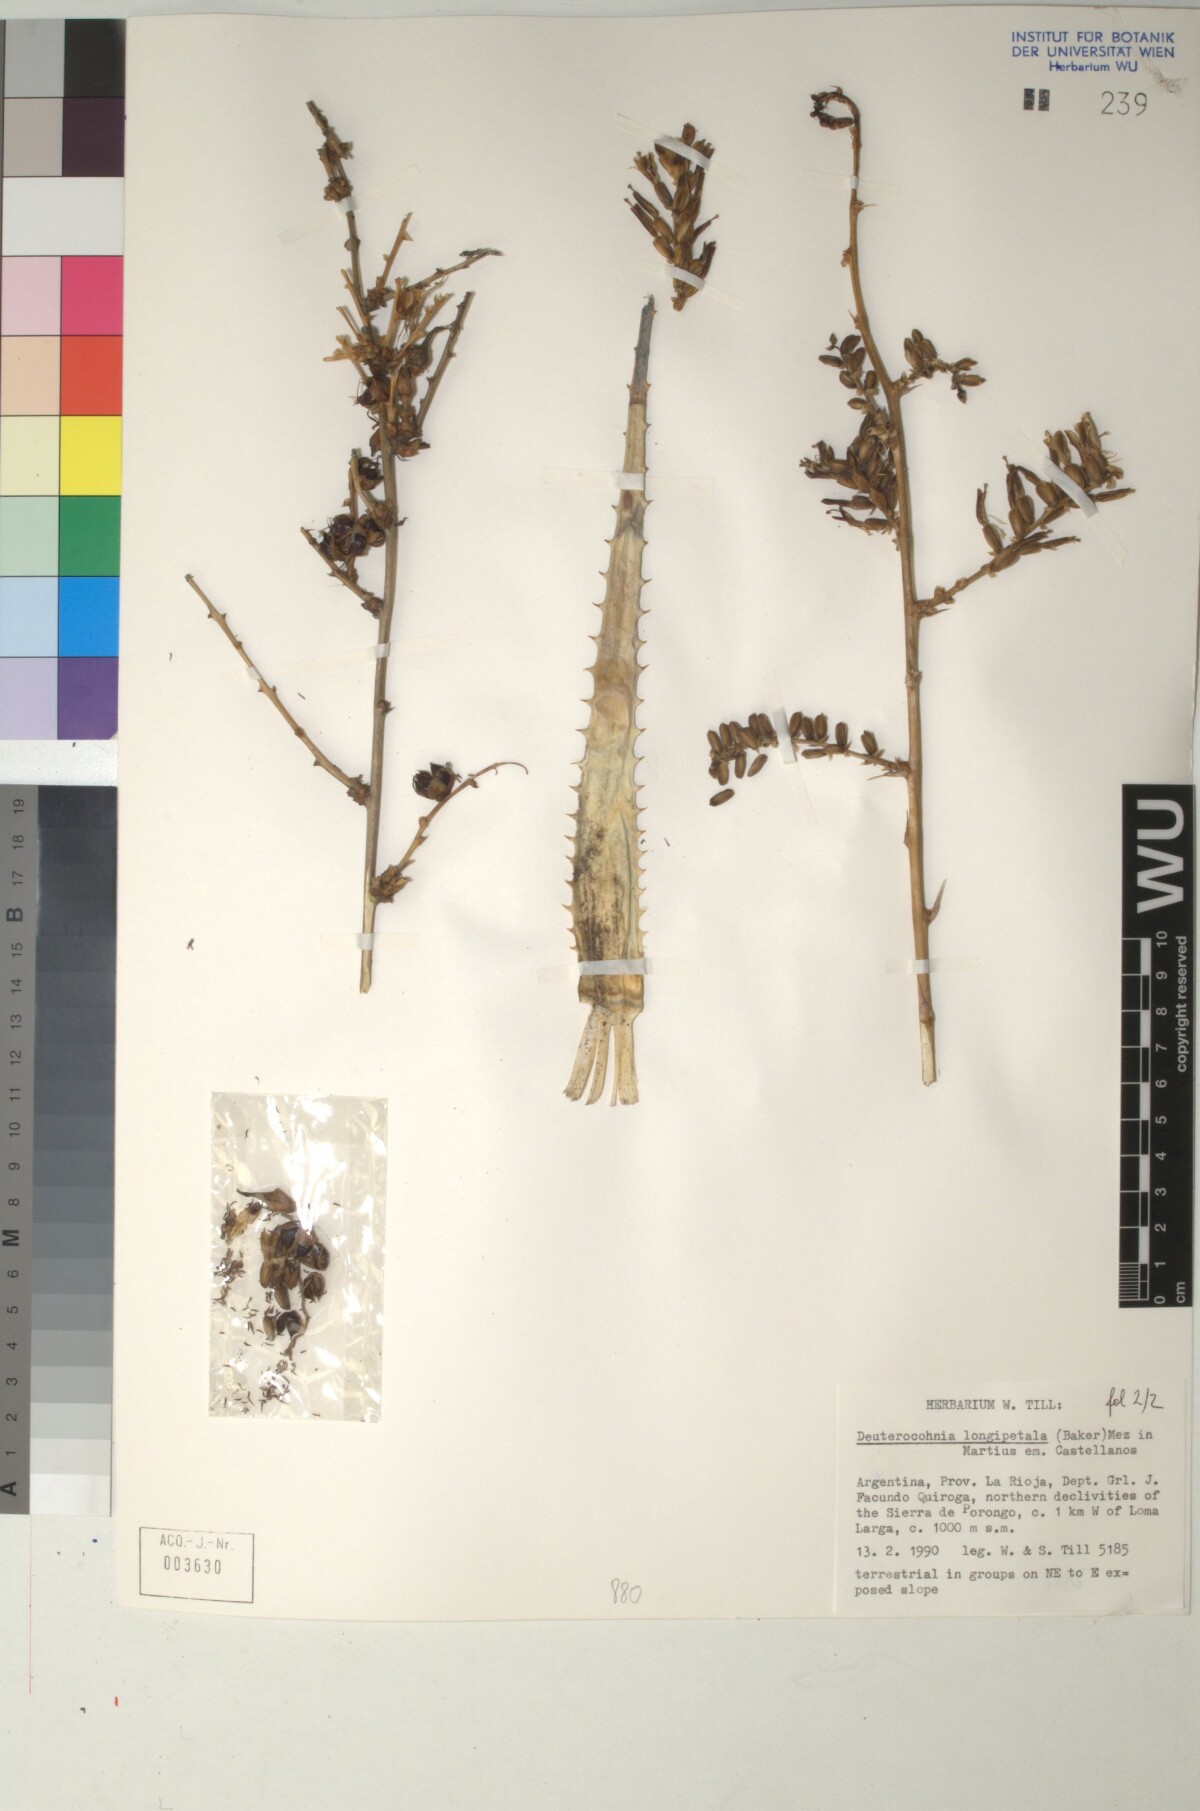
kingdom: Plantae
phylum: Tracheophyta
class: Liliopsida
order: Poales
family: Bromeliaceae
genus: Deuterocohnia
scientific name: Deuterocohnia longipetala
